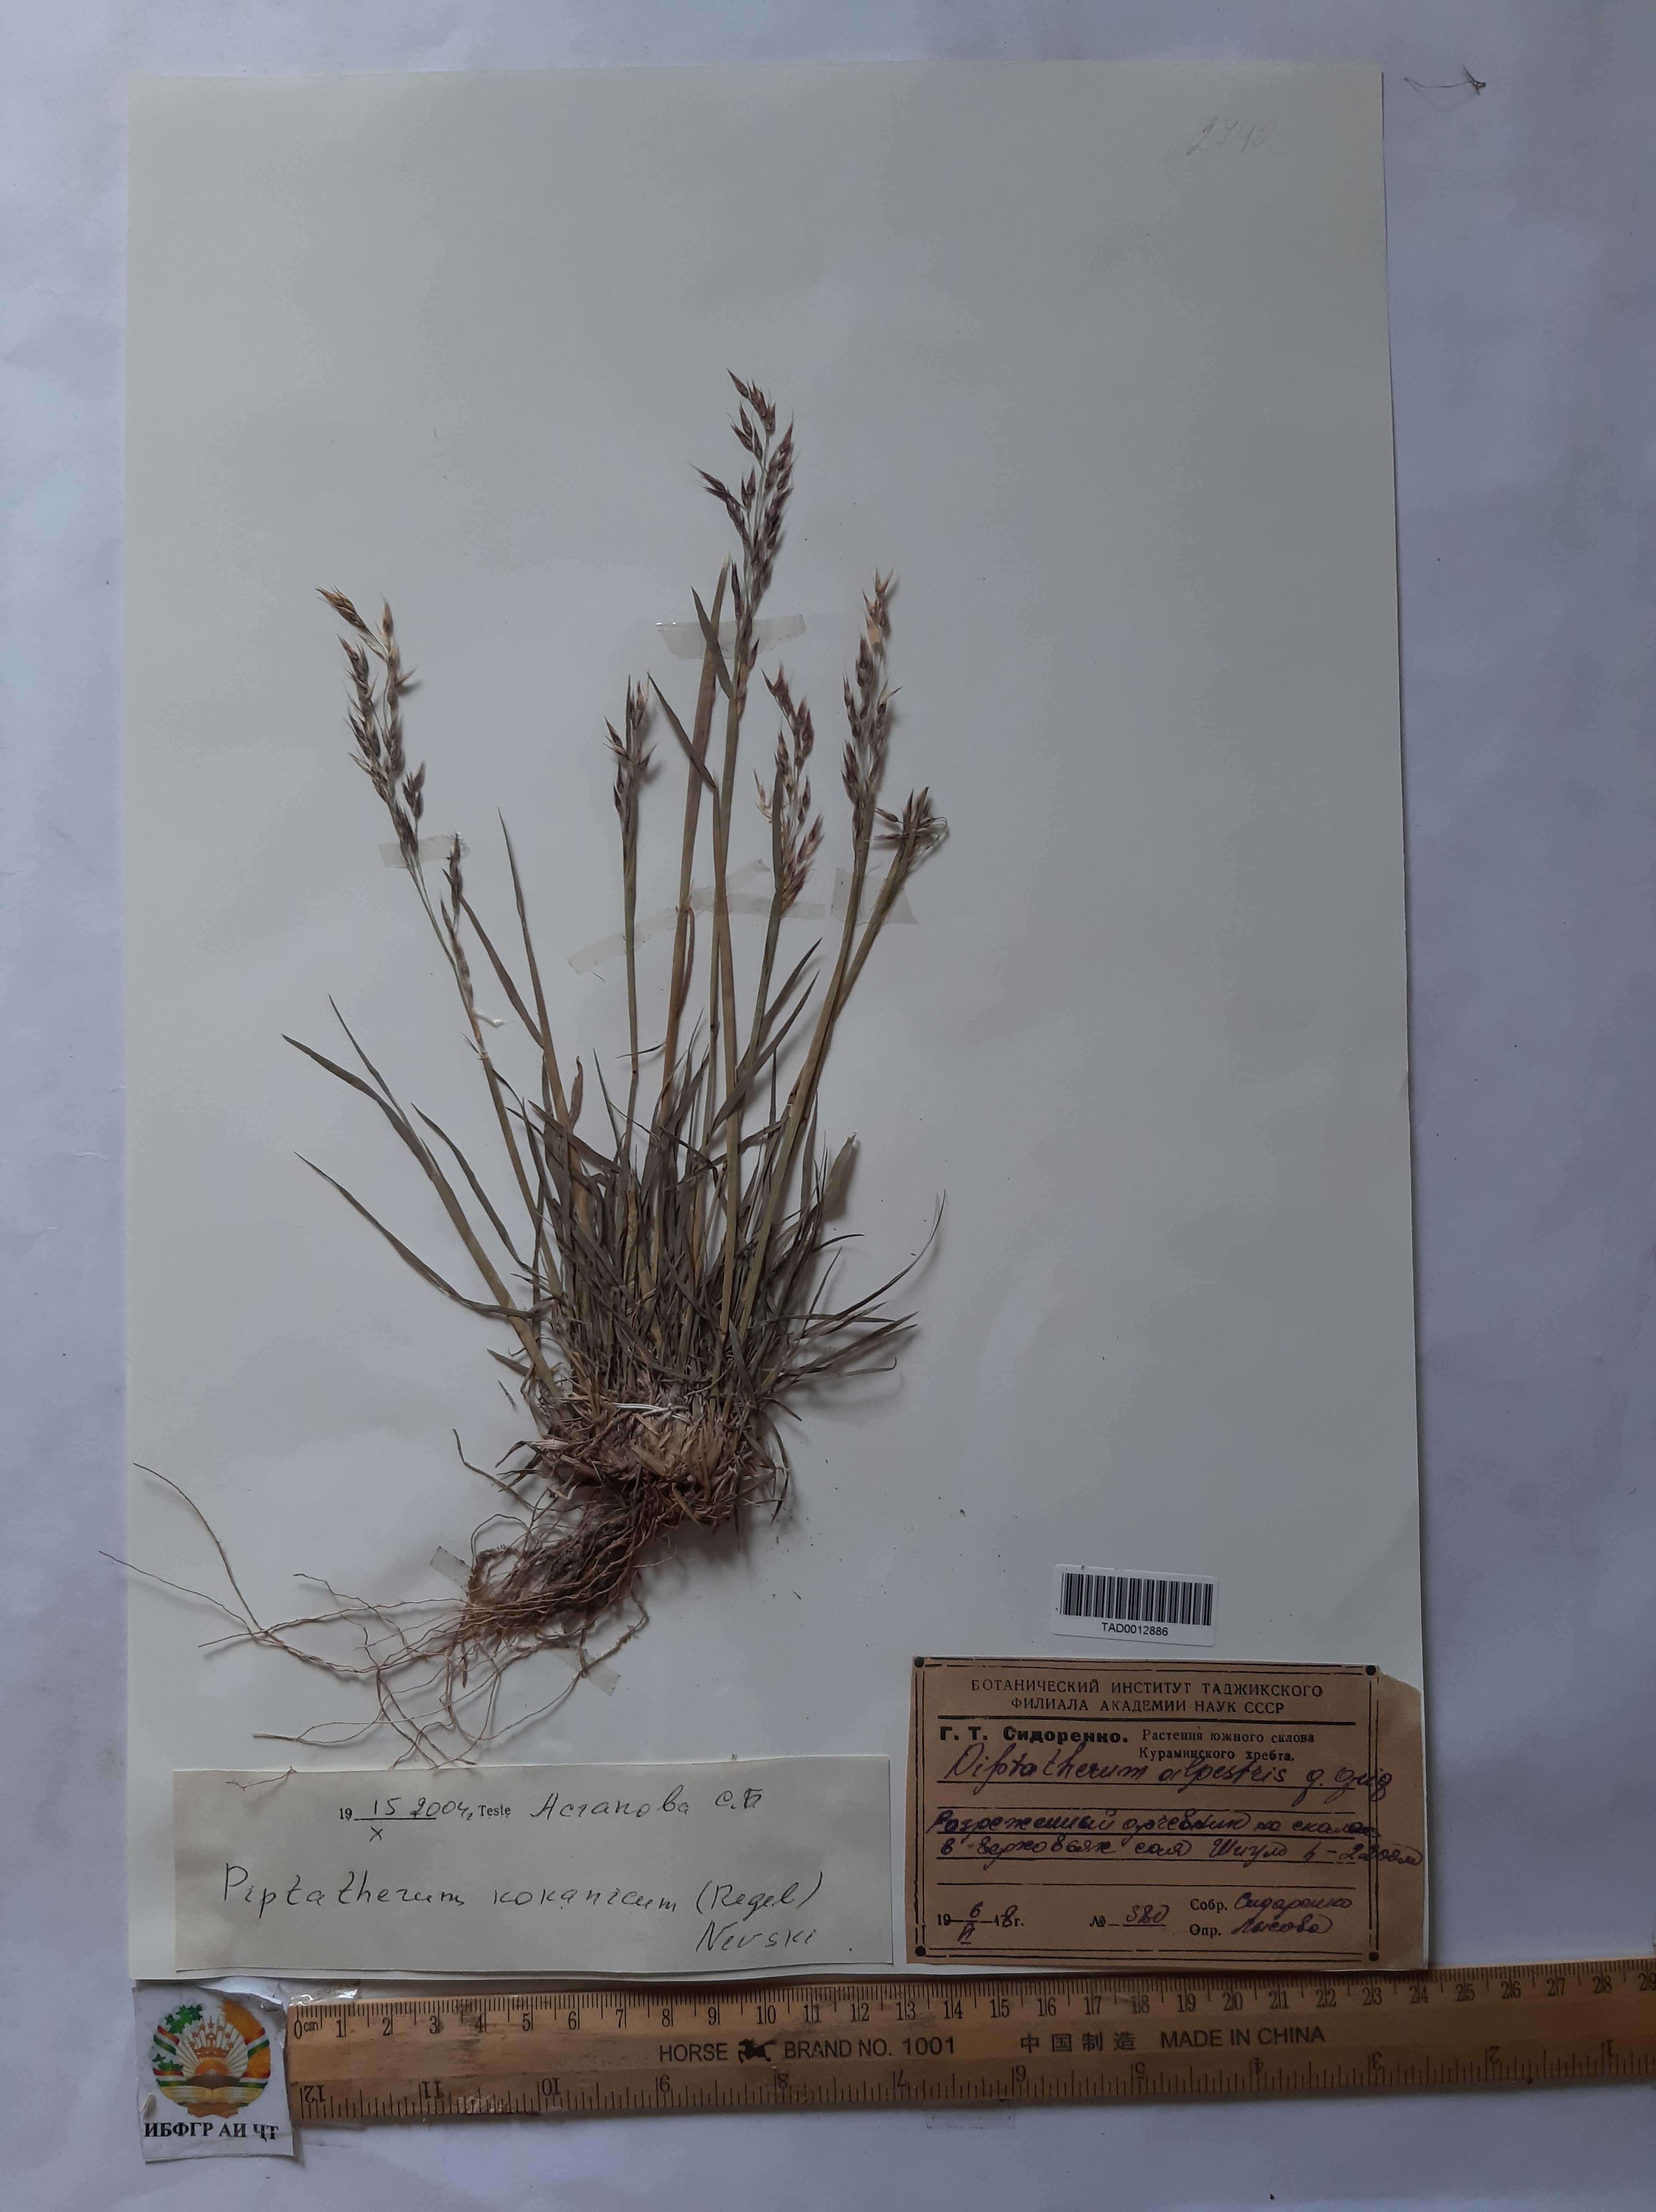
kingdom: Plantae
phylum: Tracheophyta
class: Liliopsida
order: Poales
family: Poaceae
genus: Piptatherum
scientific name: Piptatherum alpestre
